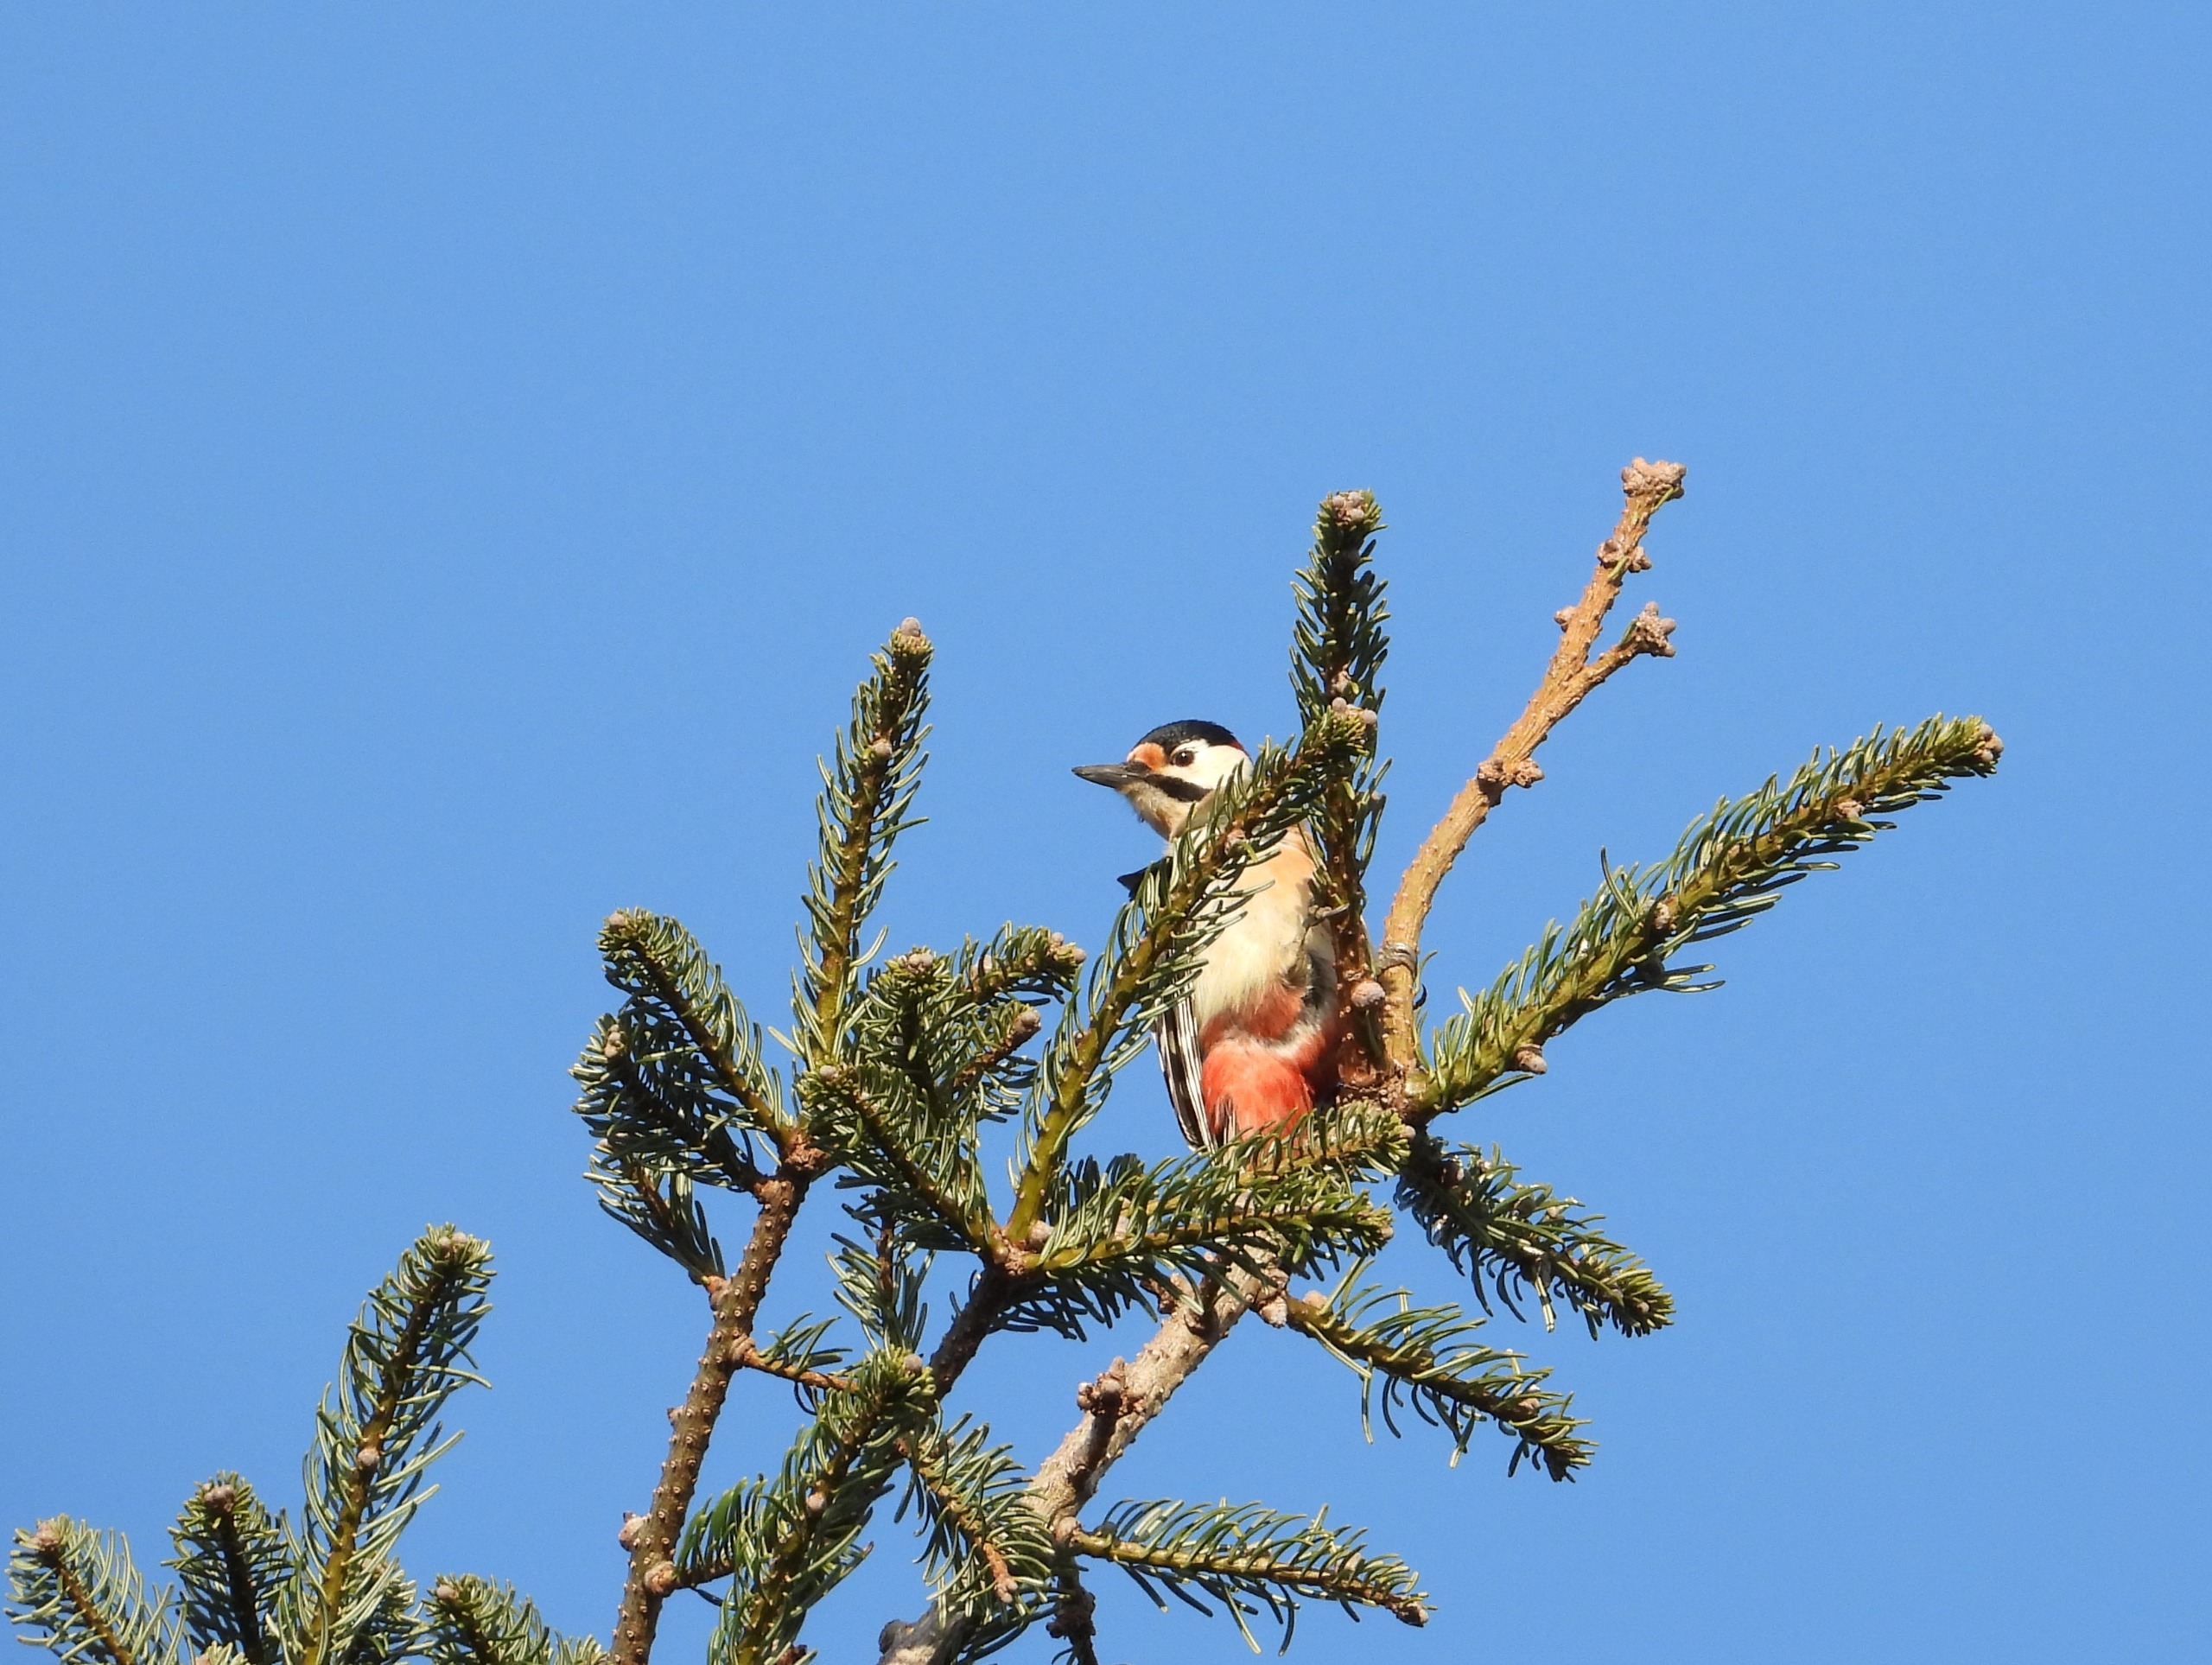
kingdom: Animalia
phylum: Chordata
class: Aves
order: Piciformes
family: Picidae
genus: Dendrocopos
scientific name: Dendrocopos major
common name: Stor flagspætte
